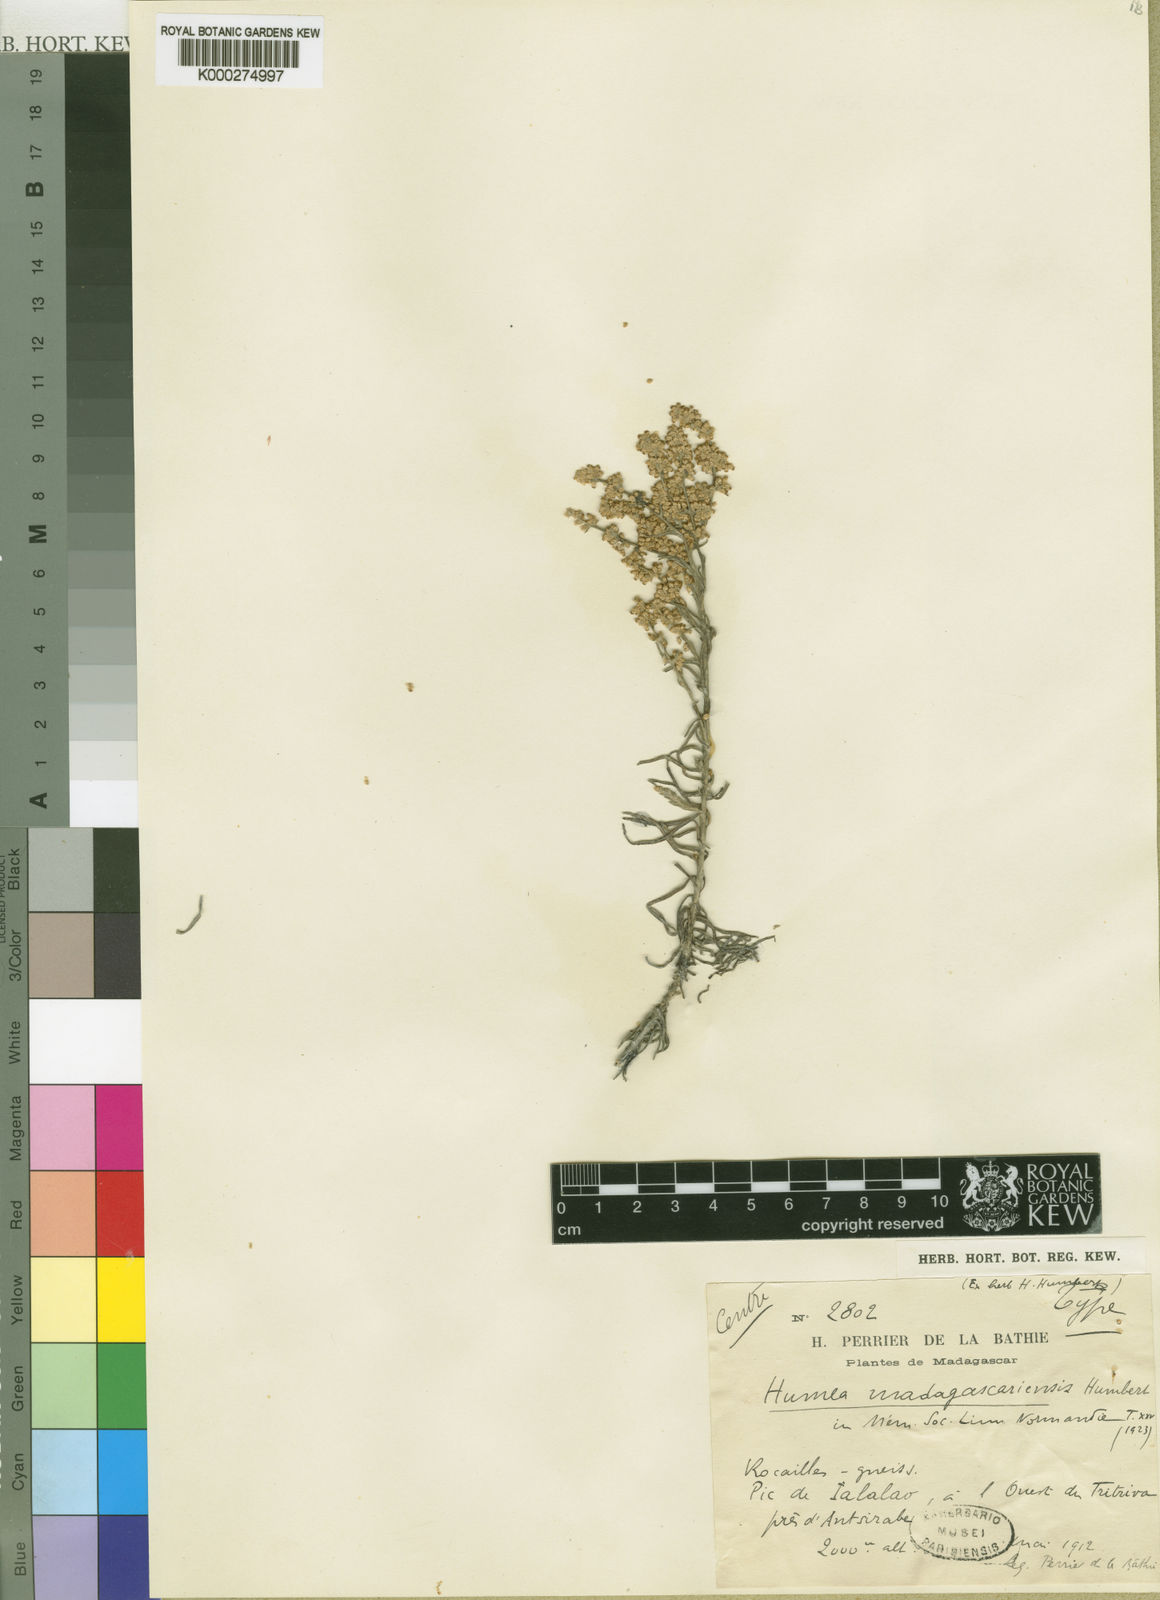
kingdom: Plantae
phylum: Tracheophyta
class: Magnoliopsida
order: Asterales
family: Asteraceae
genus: Humeocline
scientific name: Humeocline madagascariensis
